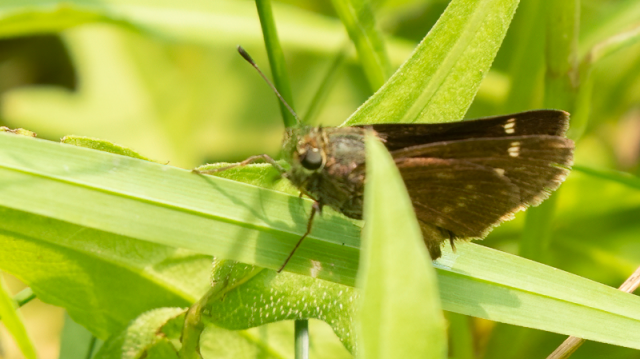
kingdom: Animalia
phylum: Arthropoda
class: Insecta
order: Lepidoptera
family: Hesperiidae
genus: Vernia
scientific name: Vernia verna
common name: Little Glassywing
